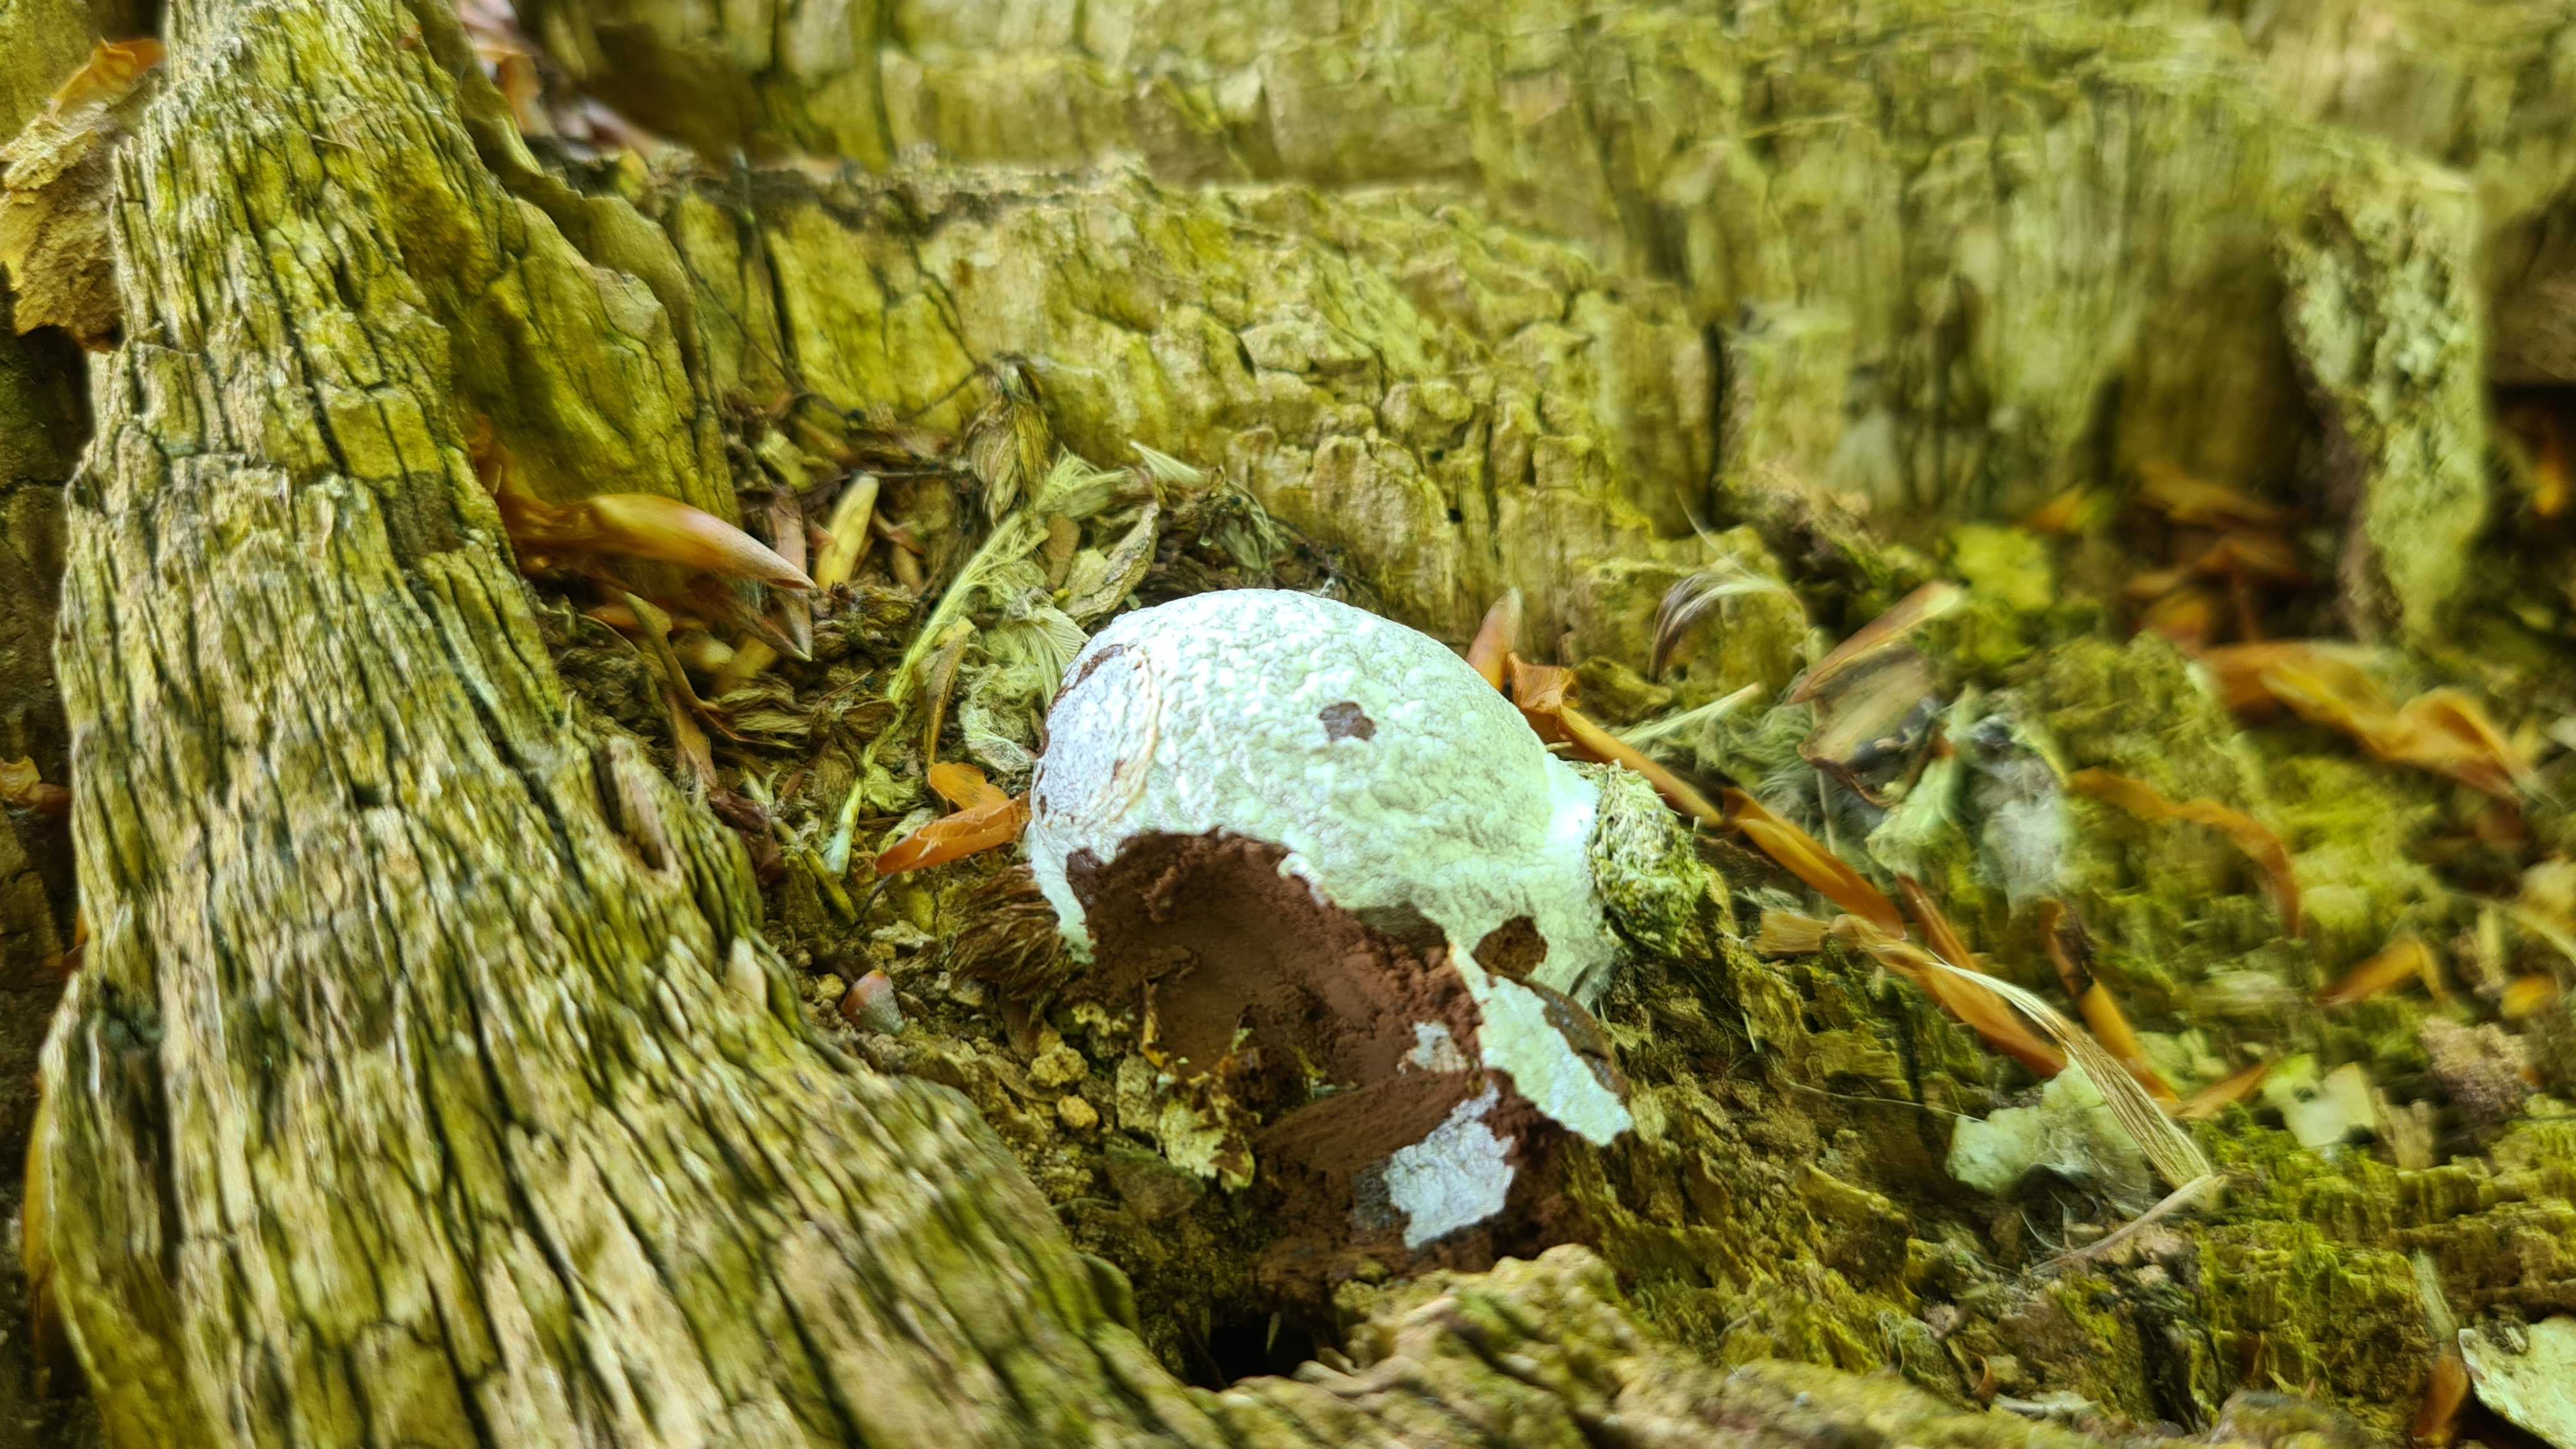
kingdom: Protozoa
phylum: Mycetozoa
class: Myxomycetes
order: Cribrariales
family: Tubiferaceae
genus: Reticularia
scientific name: Reticularia lycoperdon
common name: skinnende støvpude
